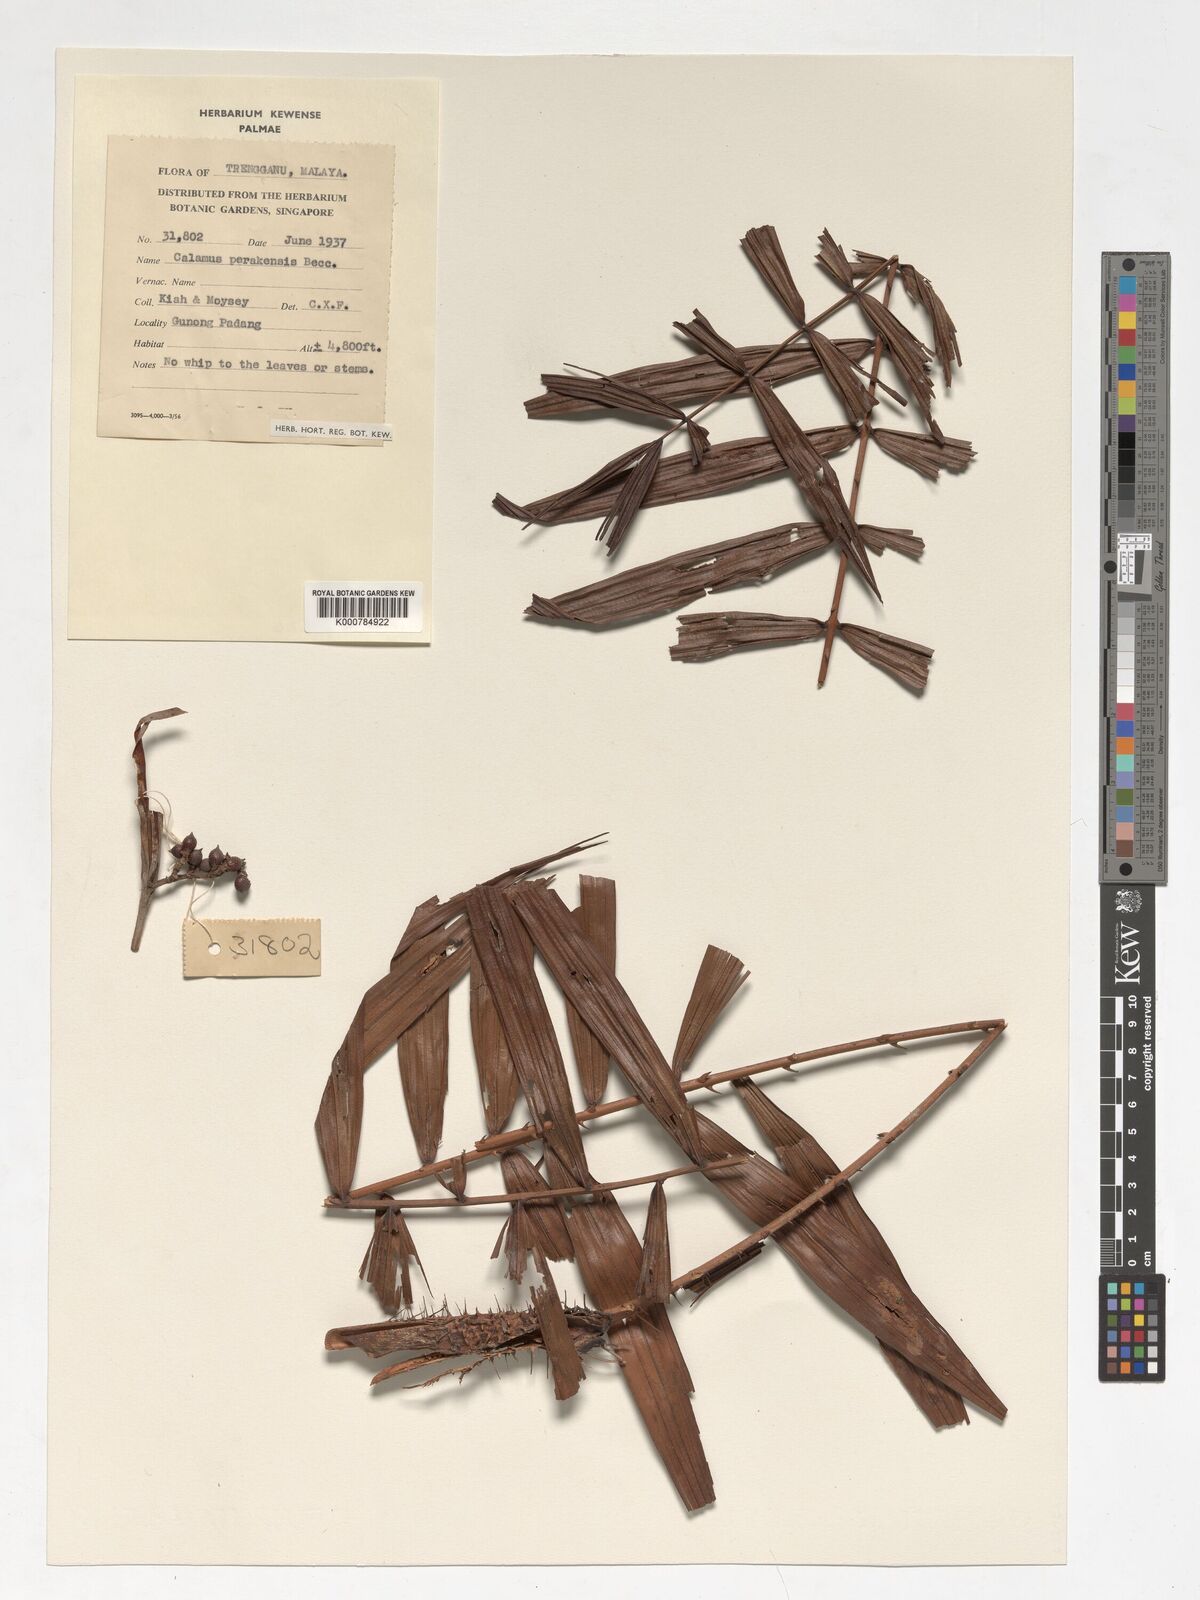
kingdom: Plantae
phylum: Tracheophyta
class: Liliopsida
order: Arecales
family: Arecaceae
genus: Calamus
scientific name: Calamus perakensis
